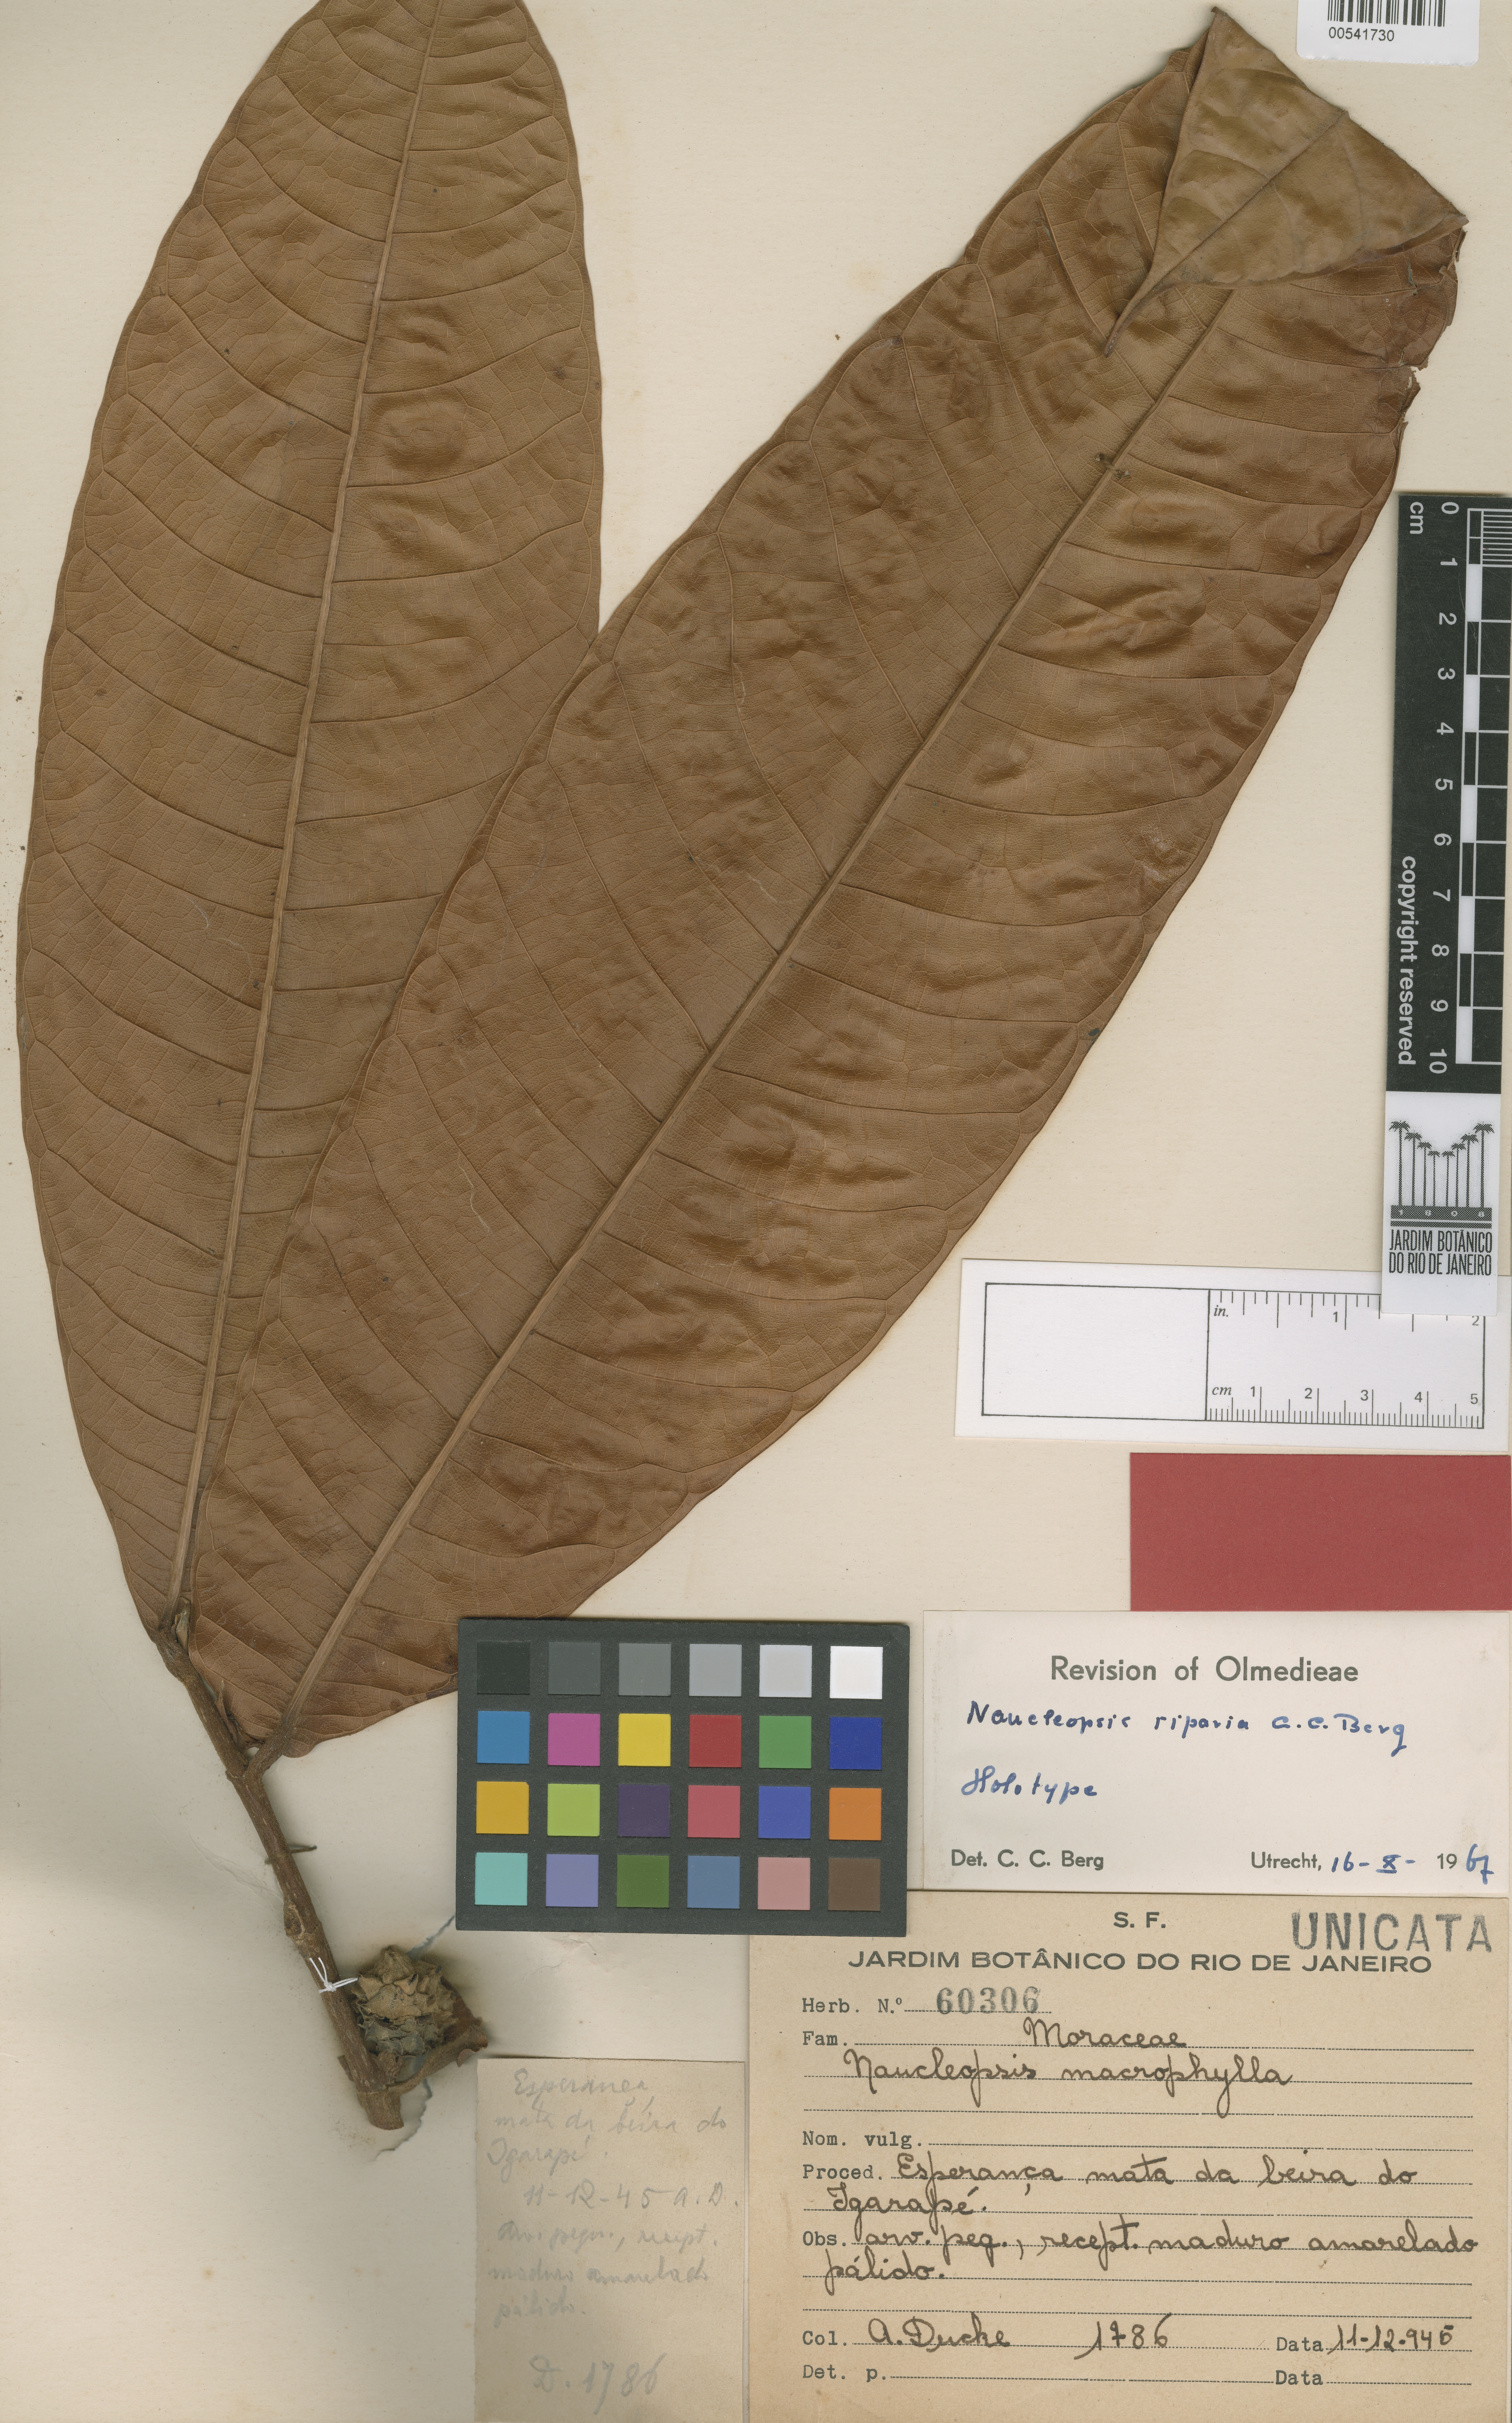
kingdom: Plantae
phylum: Tracheophyta
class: Magnoliopsida
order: Rosales
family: Moraceae
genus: Naucleopsis
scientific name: Naucleopsis riparia
